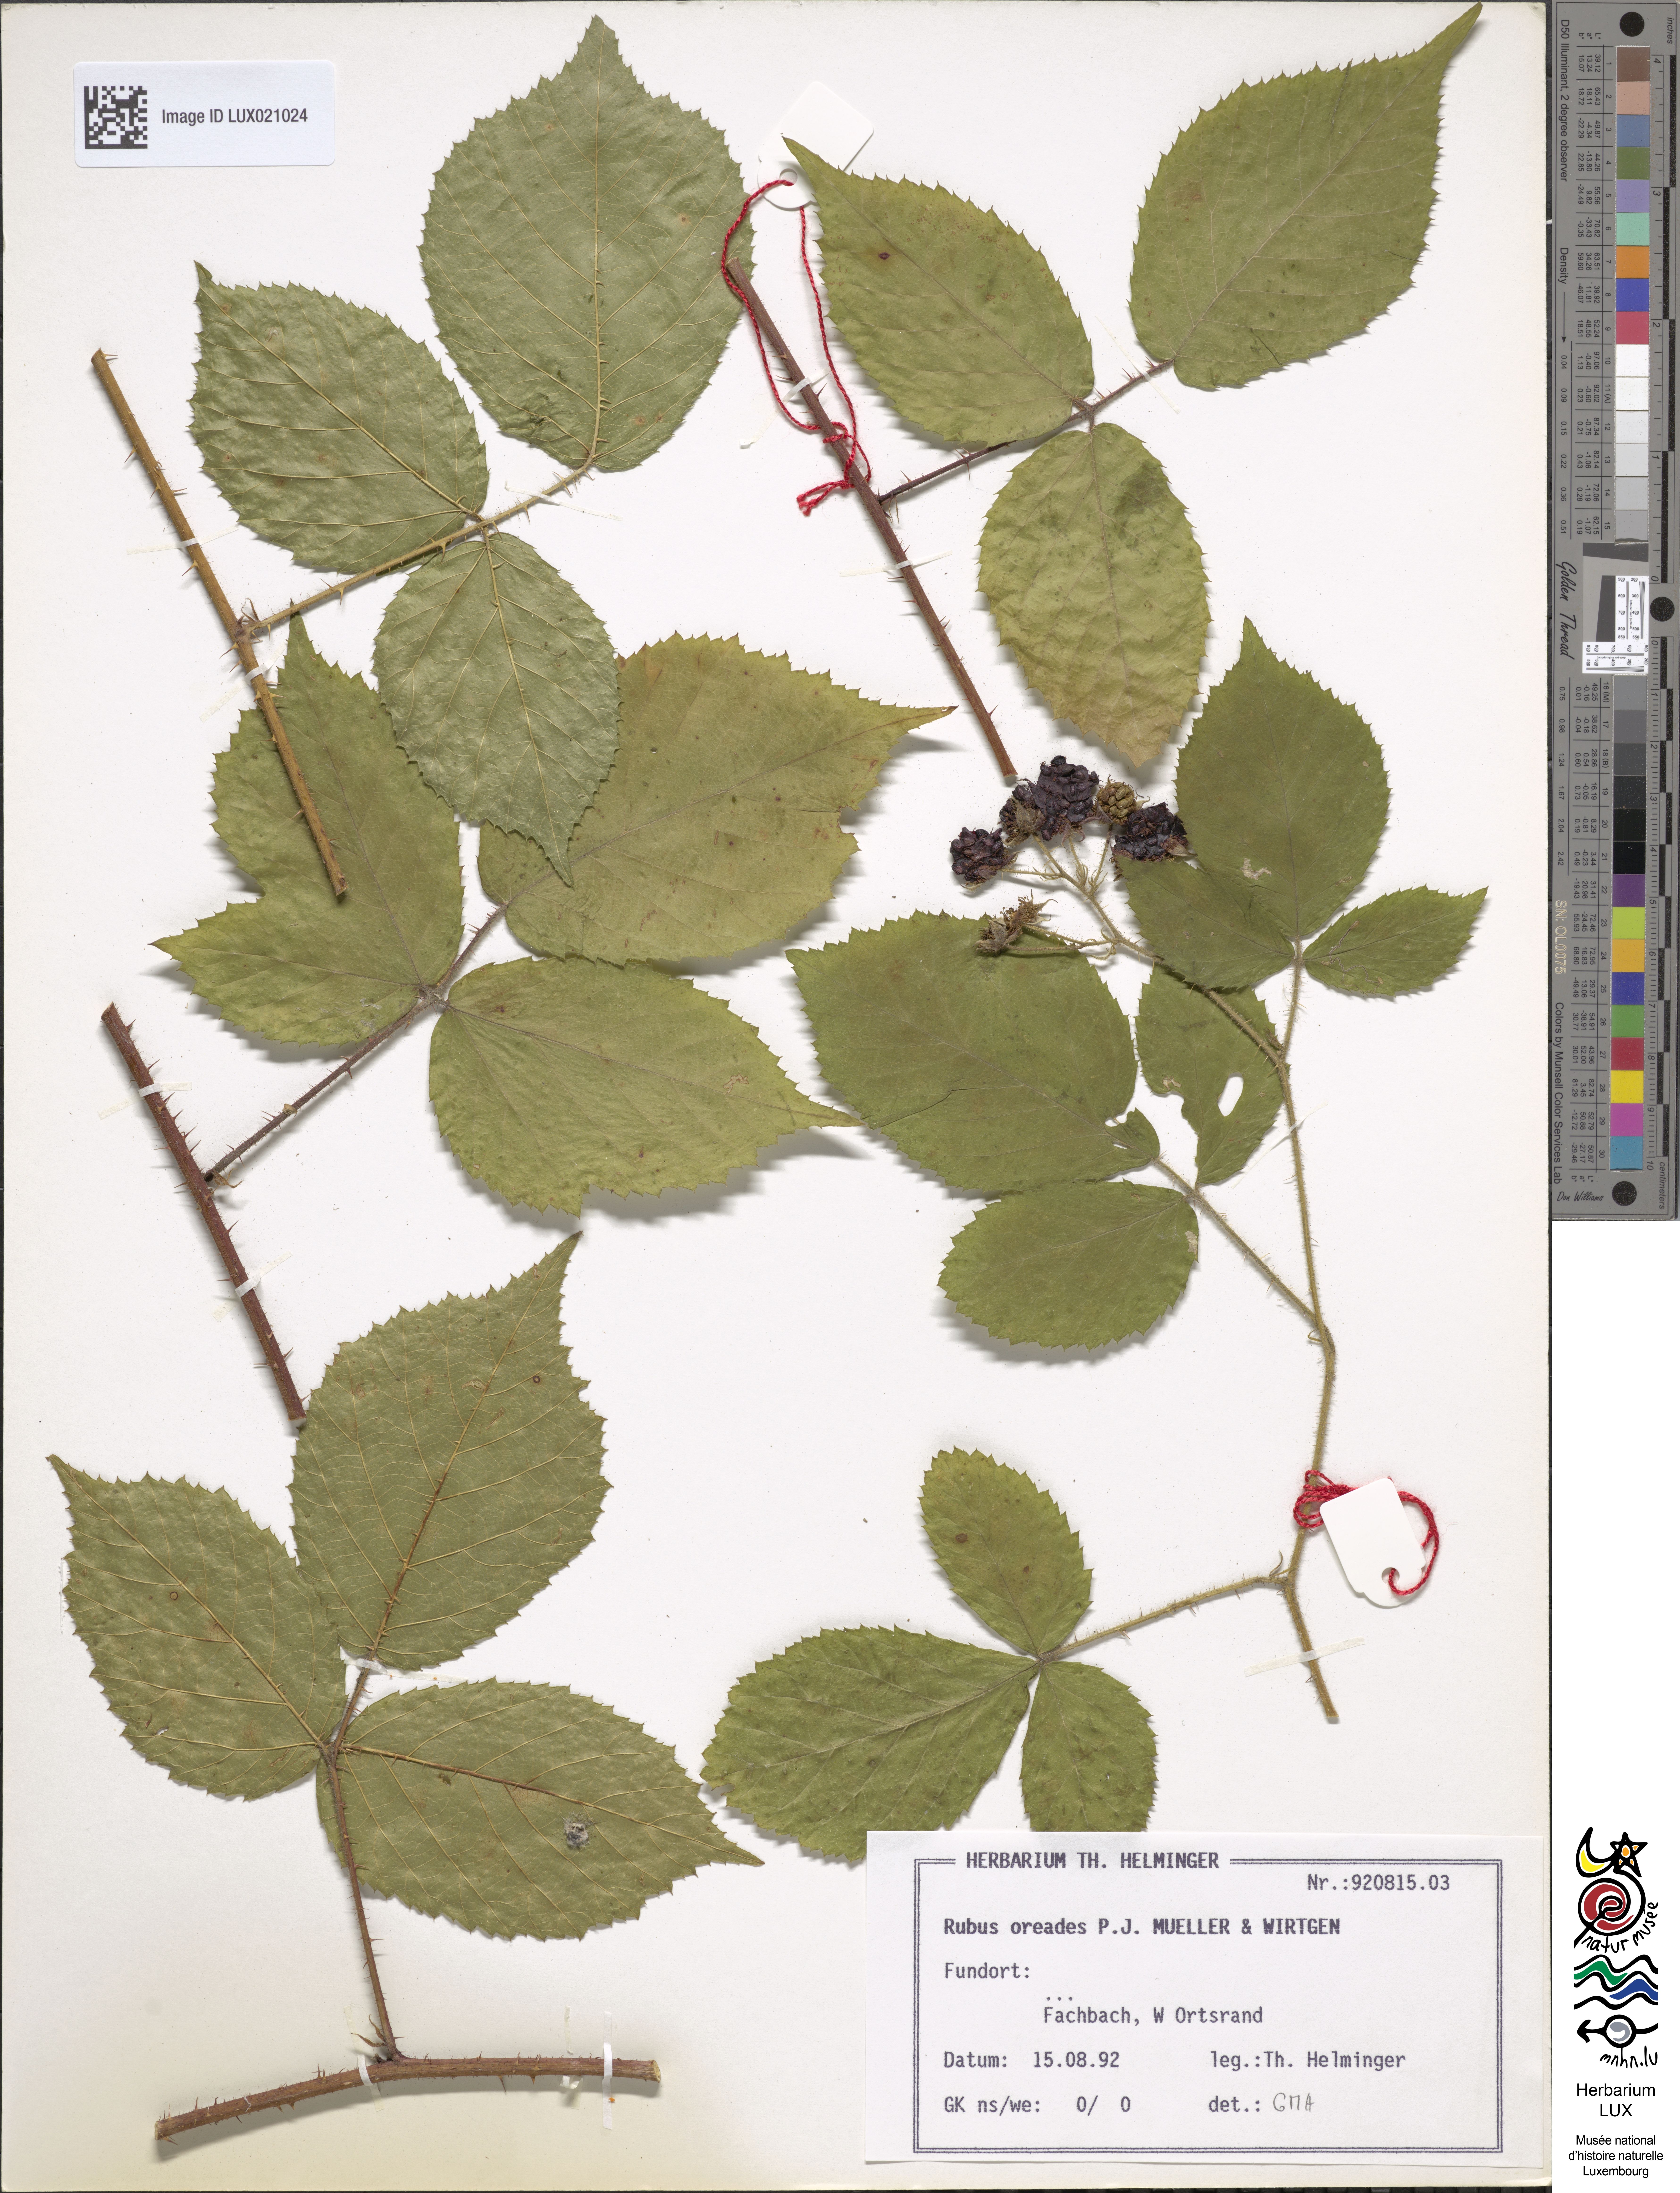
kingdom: Plantae
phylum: Tracheophyta
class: Magnoliopsida
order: Rosales
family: Rosaceae
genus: Rubus
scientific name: Rubus oreades
